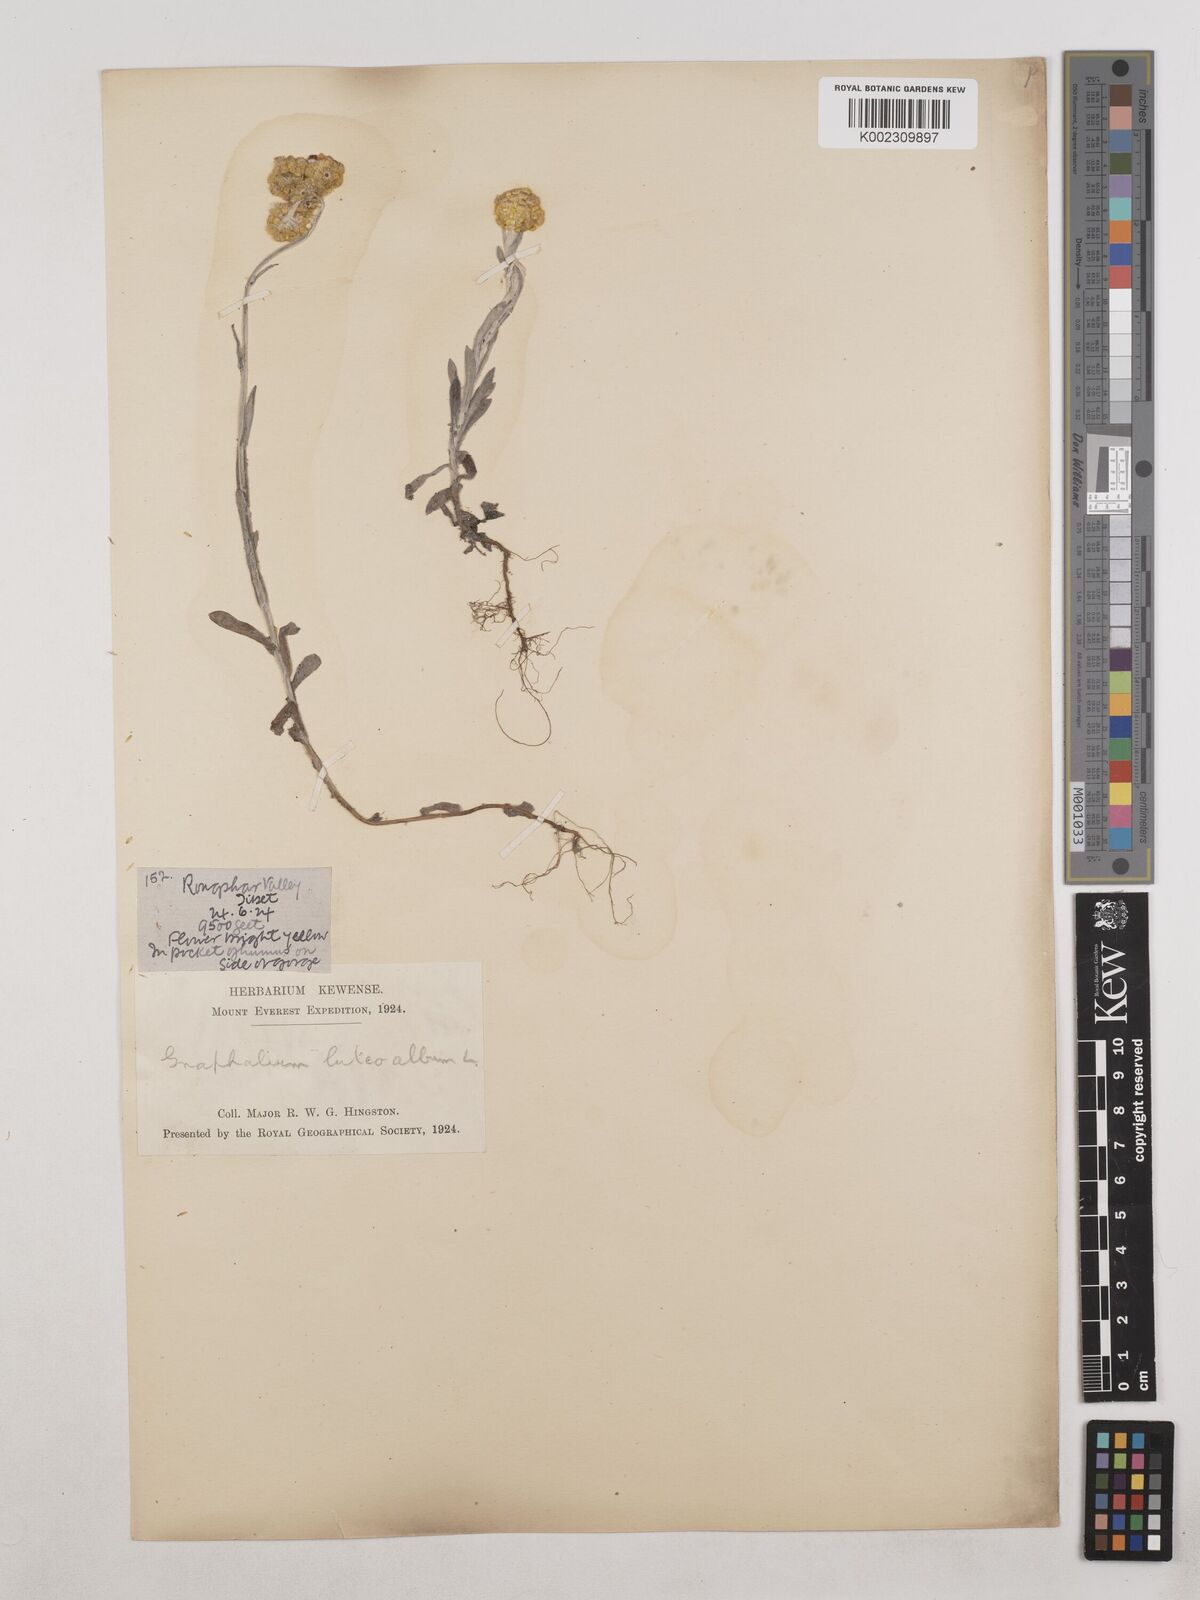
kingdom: Plantae
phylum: Tracheophyta
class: Magnoliopsida
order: Asterales
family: Asteraceae
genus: Pseudognaphalium
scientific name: Pseudognaphalium affine
